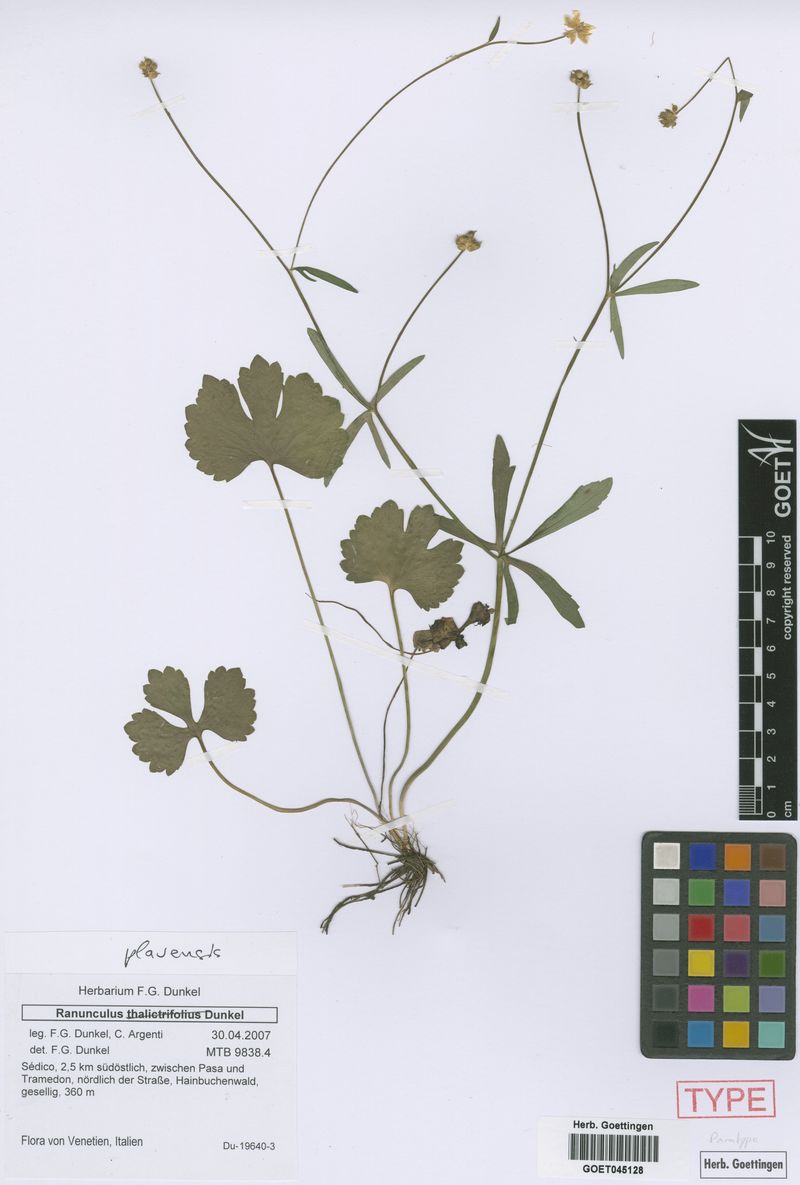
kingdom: Plantae
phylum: Tracheophyta
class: Magnoliopsida
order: Ranunculales
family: Ranunculaceae
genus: Ranunculus
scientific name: Ranunculus plavensis
